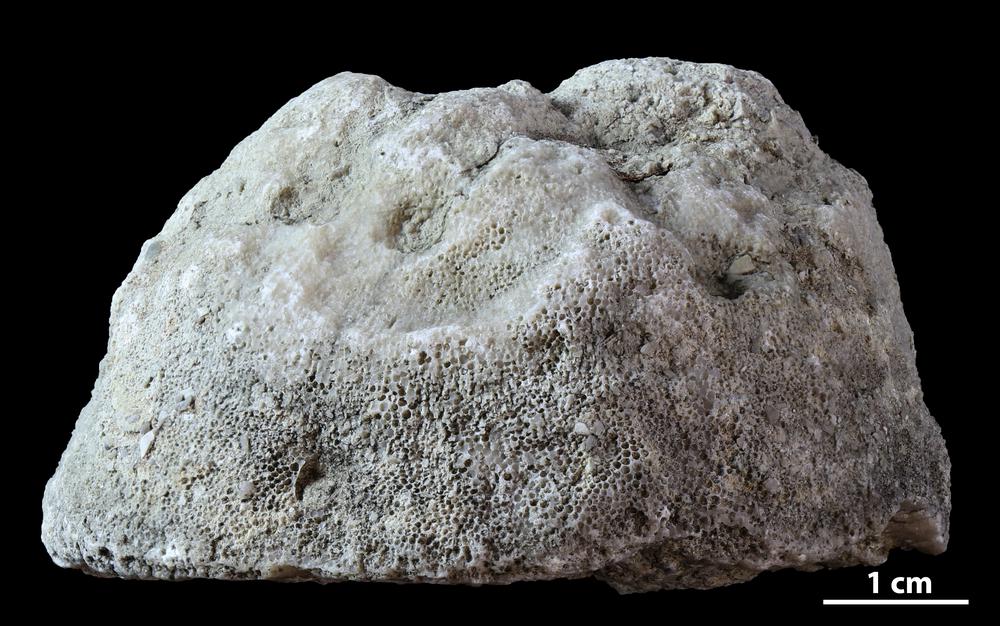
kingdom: Animalia
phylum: Bryozoa
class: Stenolaemata
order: Trepostomatida
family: Diplotrypidae
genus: Diplotrypa
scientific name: Diplotrypa
